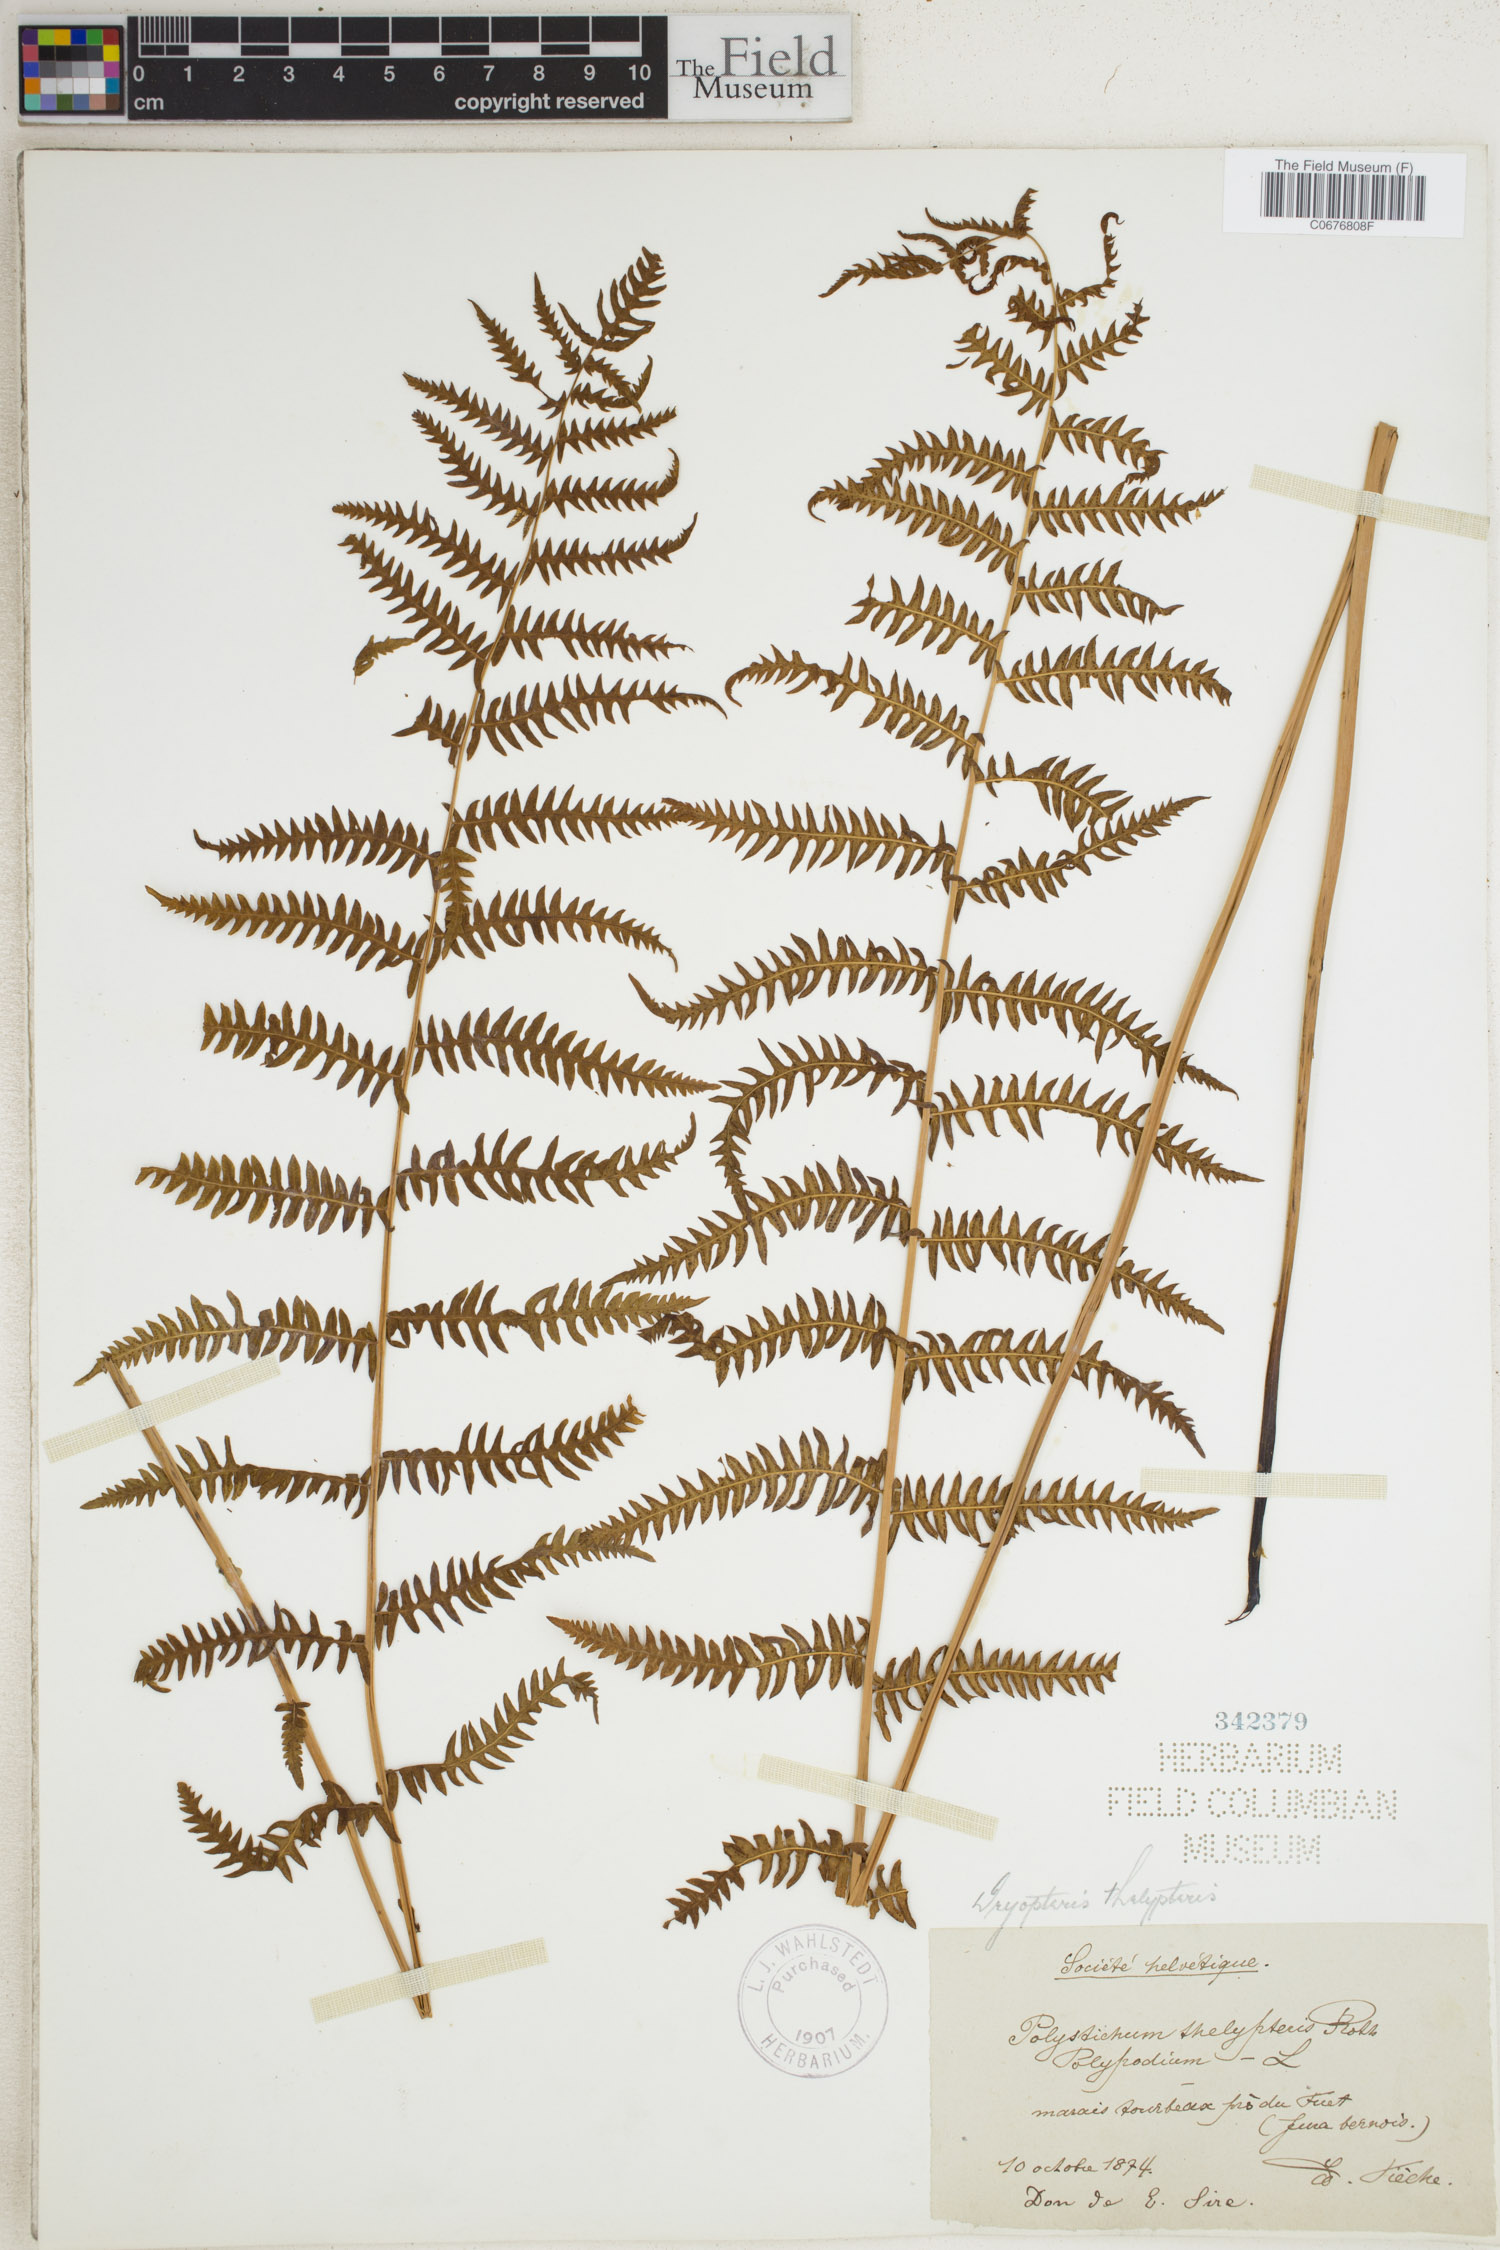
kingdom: Plantae
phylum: Tracheophyta
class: Polypodiopsida
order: Polypodiales
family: Thelypteridaceae
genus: Thelypteris
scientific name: Thelypteris palustris
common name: Marsh fern
